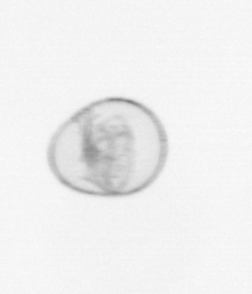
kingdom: Chromista
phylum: Myzozoa
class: Dinophyceae
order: Noctilucales
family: Noctilucaceae
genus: Noctiluca
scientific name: Noctiluca scintillans
